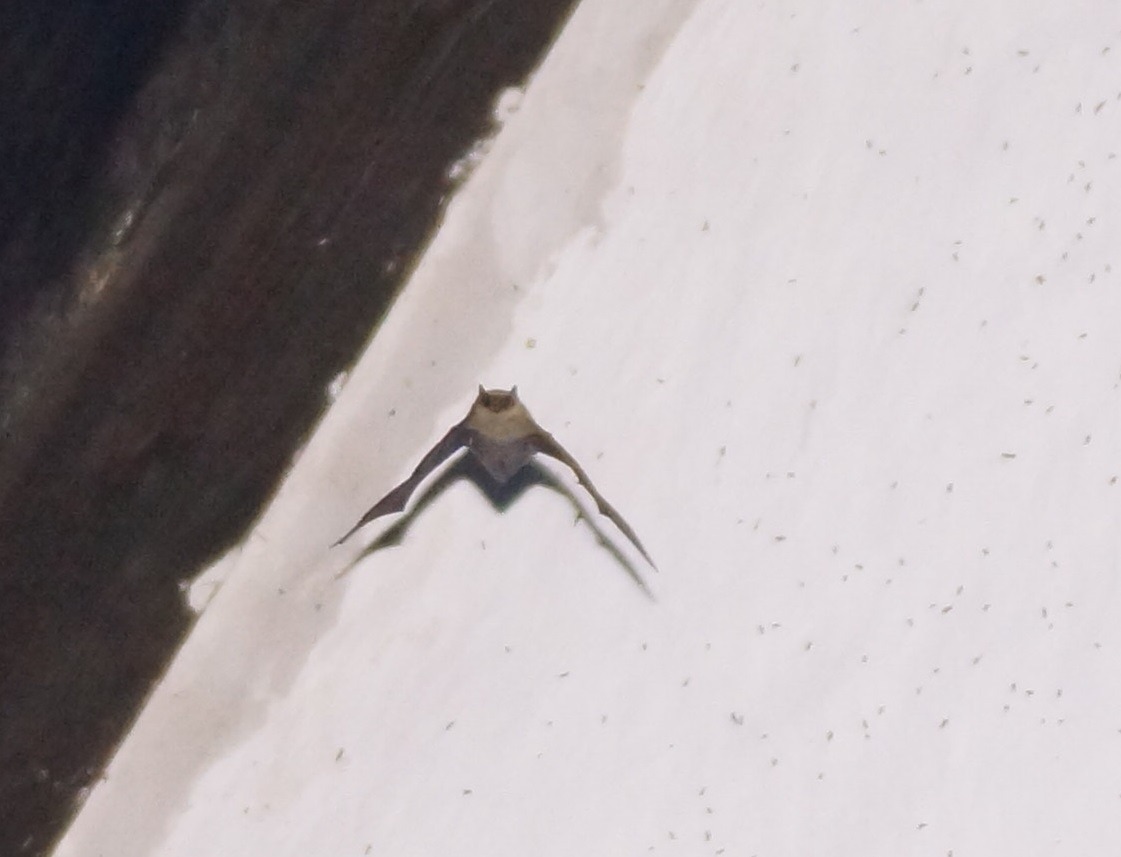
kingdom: Animalia
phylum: Chordata
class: Mammalia
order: Chiroptera
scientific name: Chiroptera
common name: Flagermus
